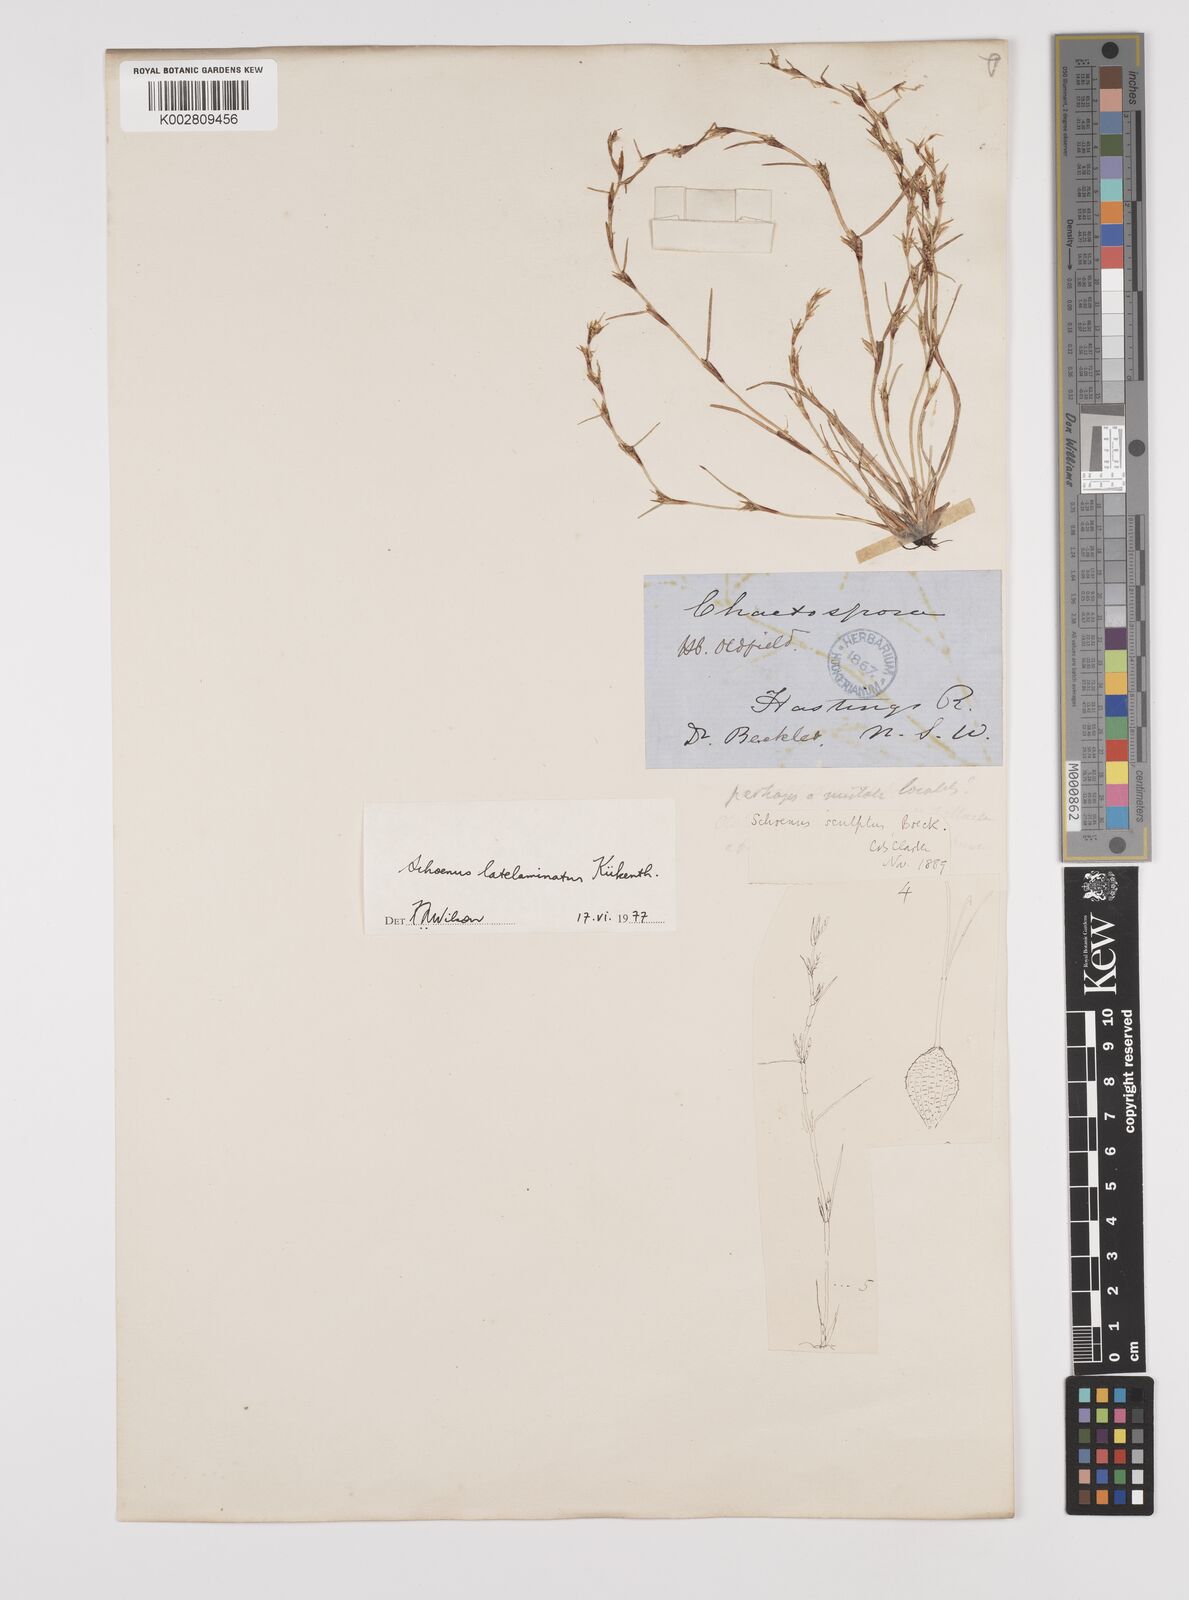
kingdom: Plantae
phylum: Tracheophyta
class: Liliopsida
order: Poales
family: Cyperaceae
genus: Schoenus
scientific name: Schoenus latelaminatus
